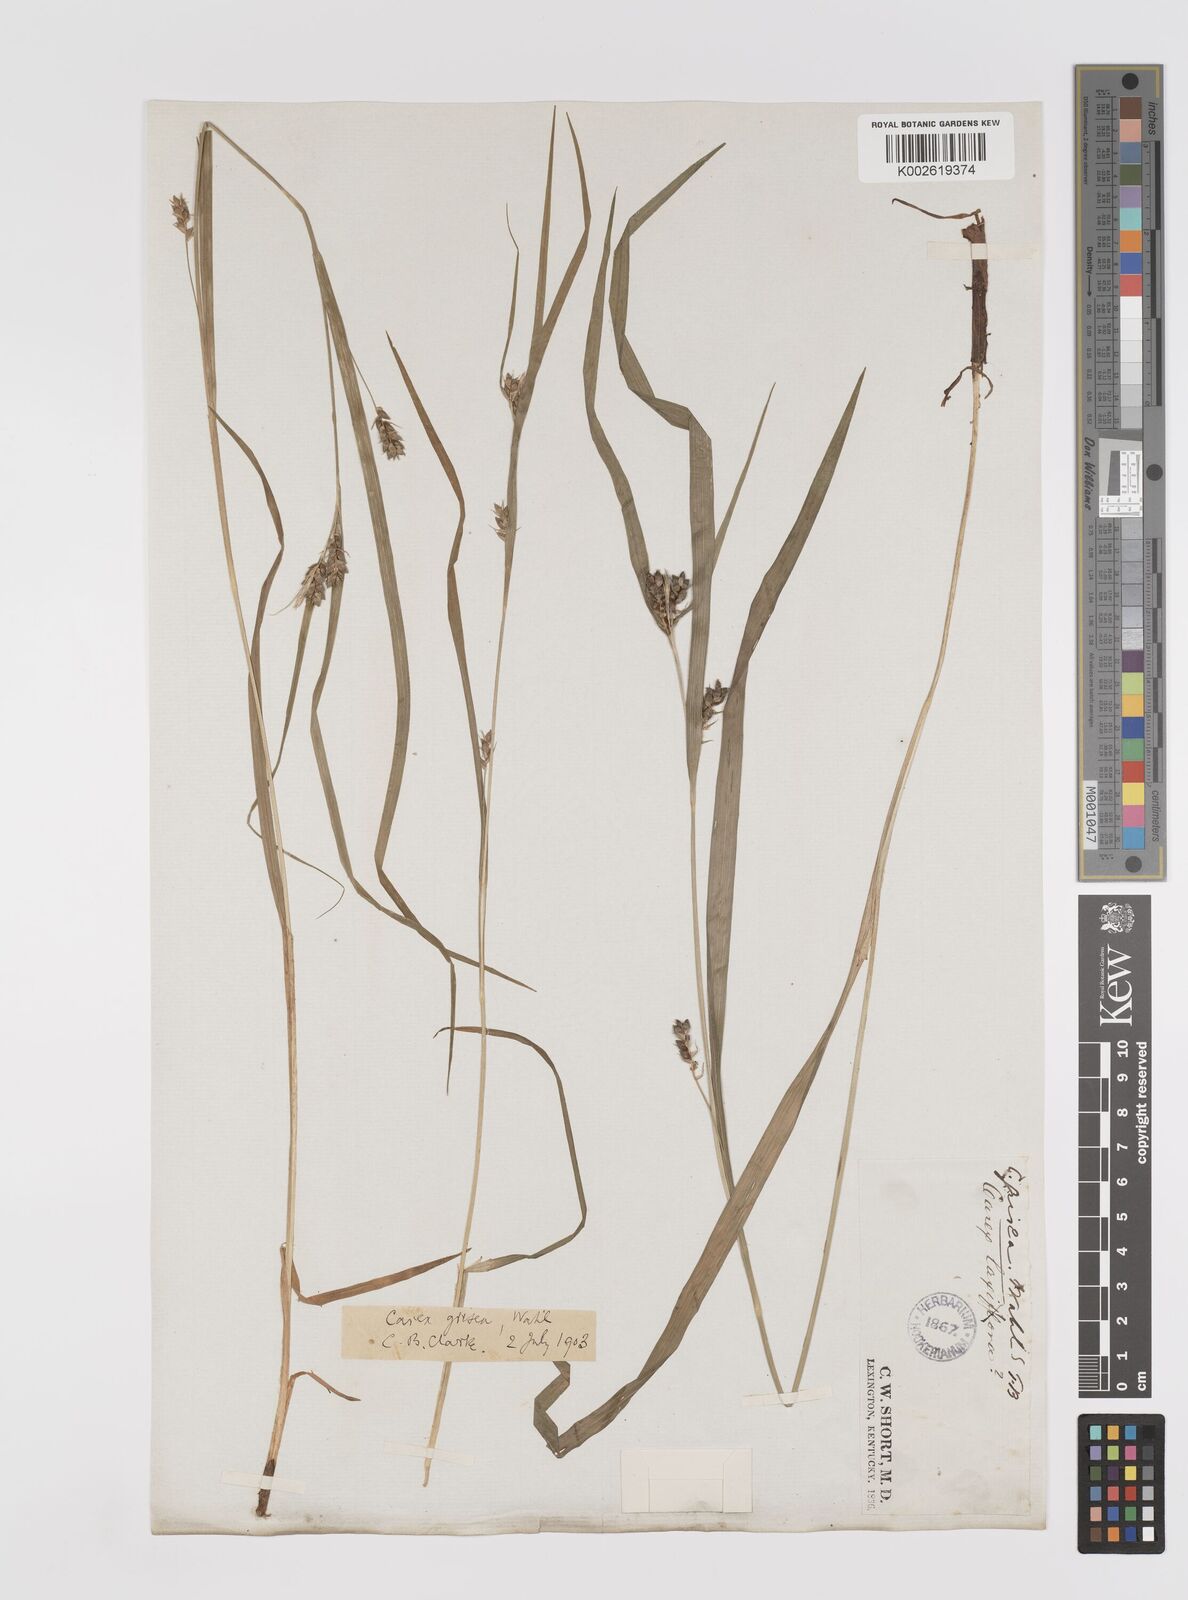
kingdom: Plantae
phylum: Tracheophyta
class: Liliopsida
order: Poales
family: Cyperaceae
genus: Carex
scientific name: Carex grisea
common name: Eastern narrow-leaved sedge
